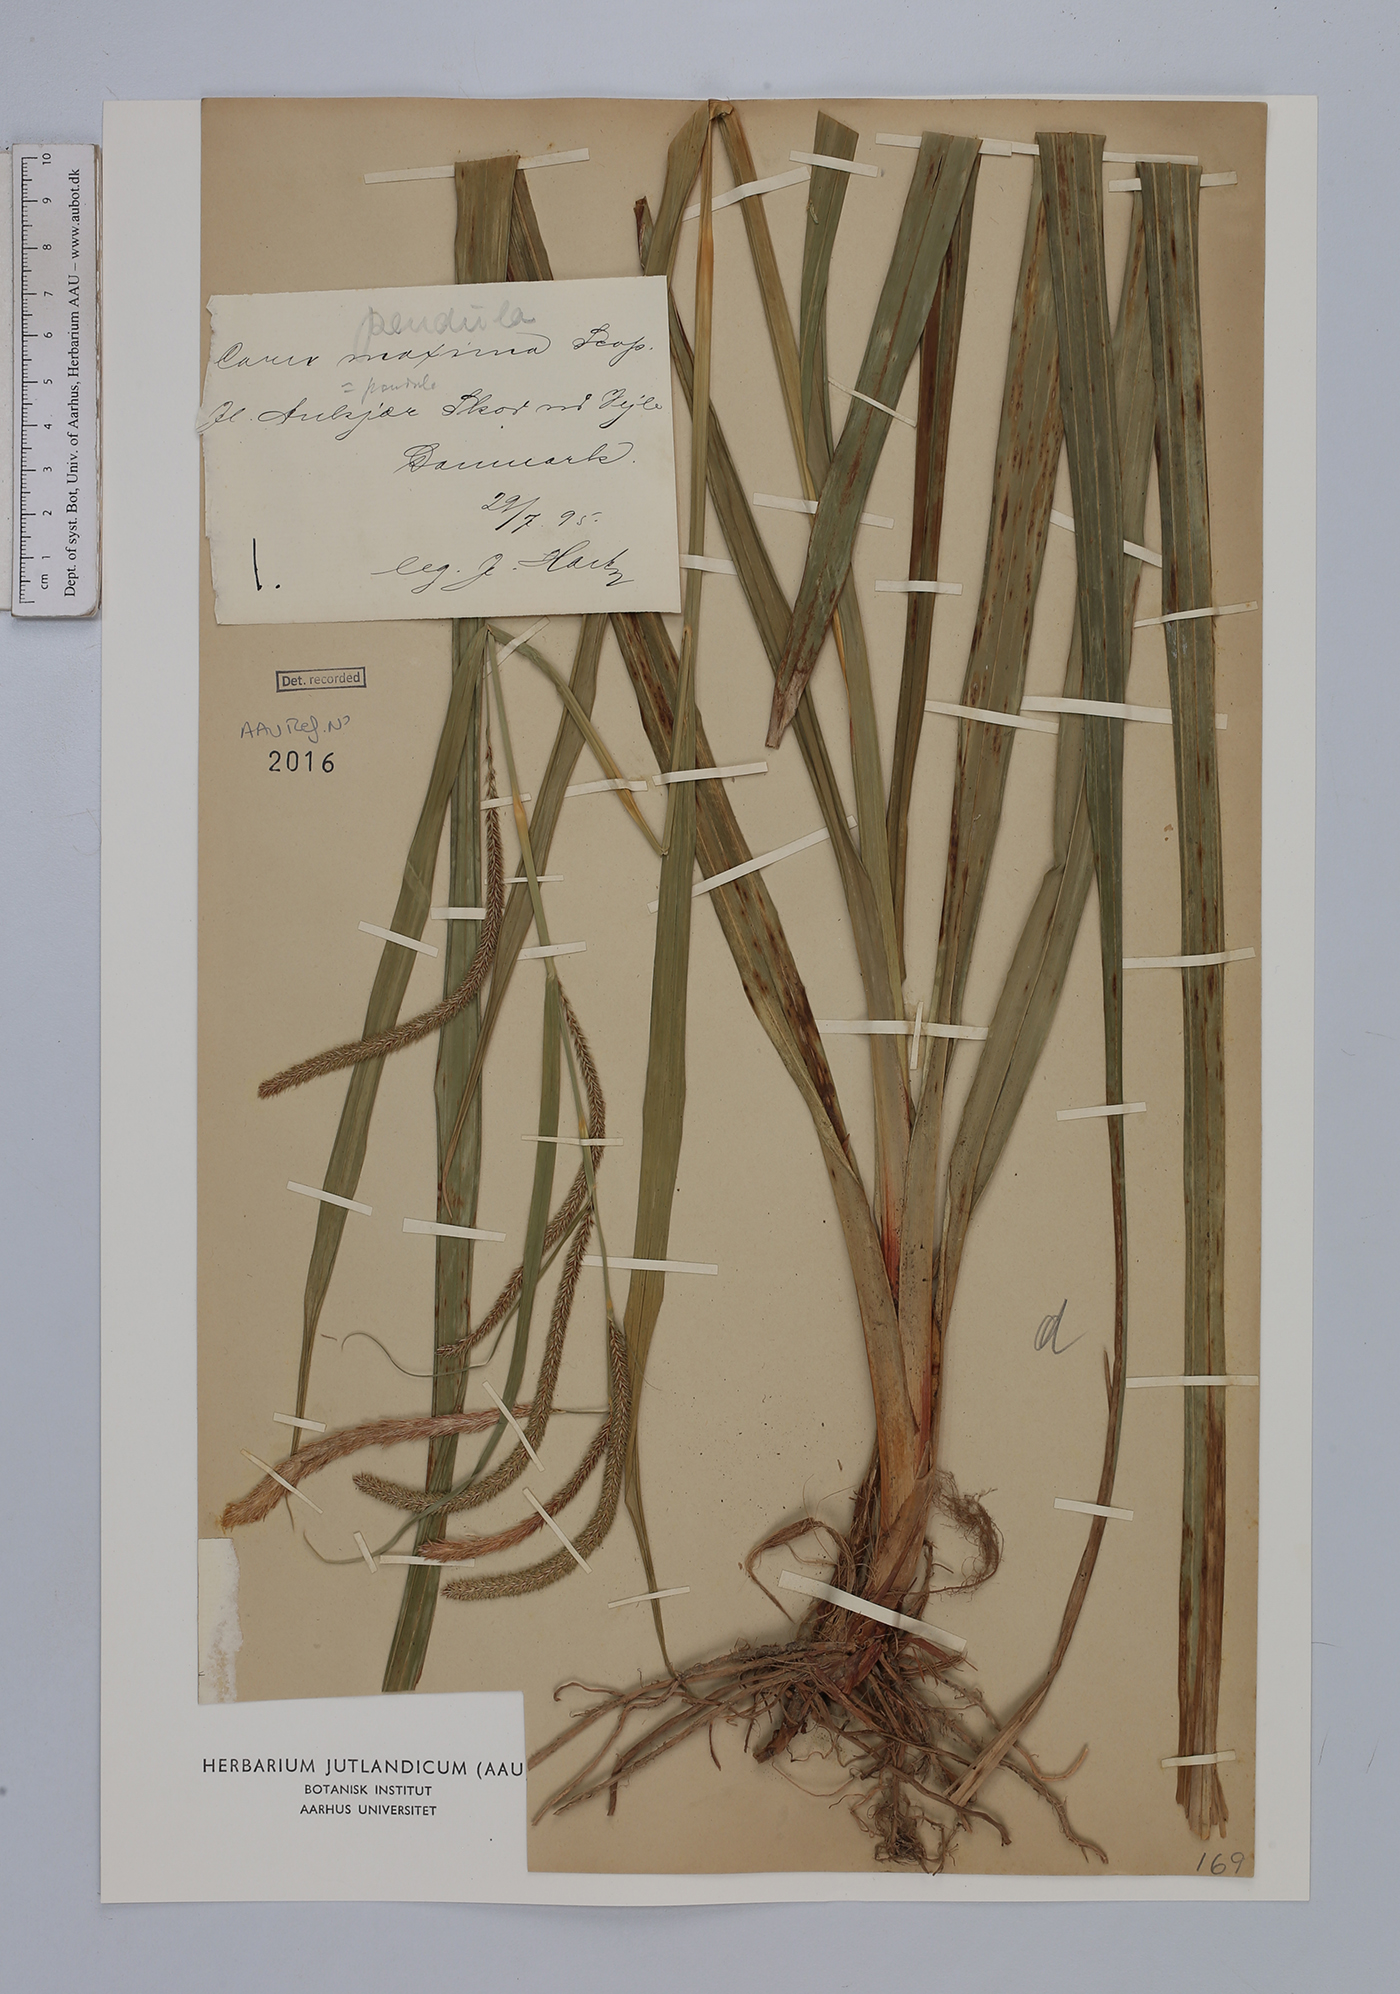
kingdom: Plantae
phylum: Tracheophyta
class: Liliopsida
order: Poales
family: Cyperaceae
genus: Carex
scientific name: Carex pendula
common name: Pendulous sedge
